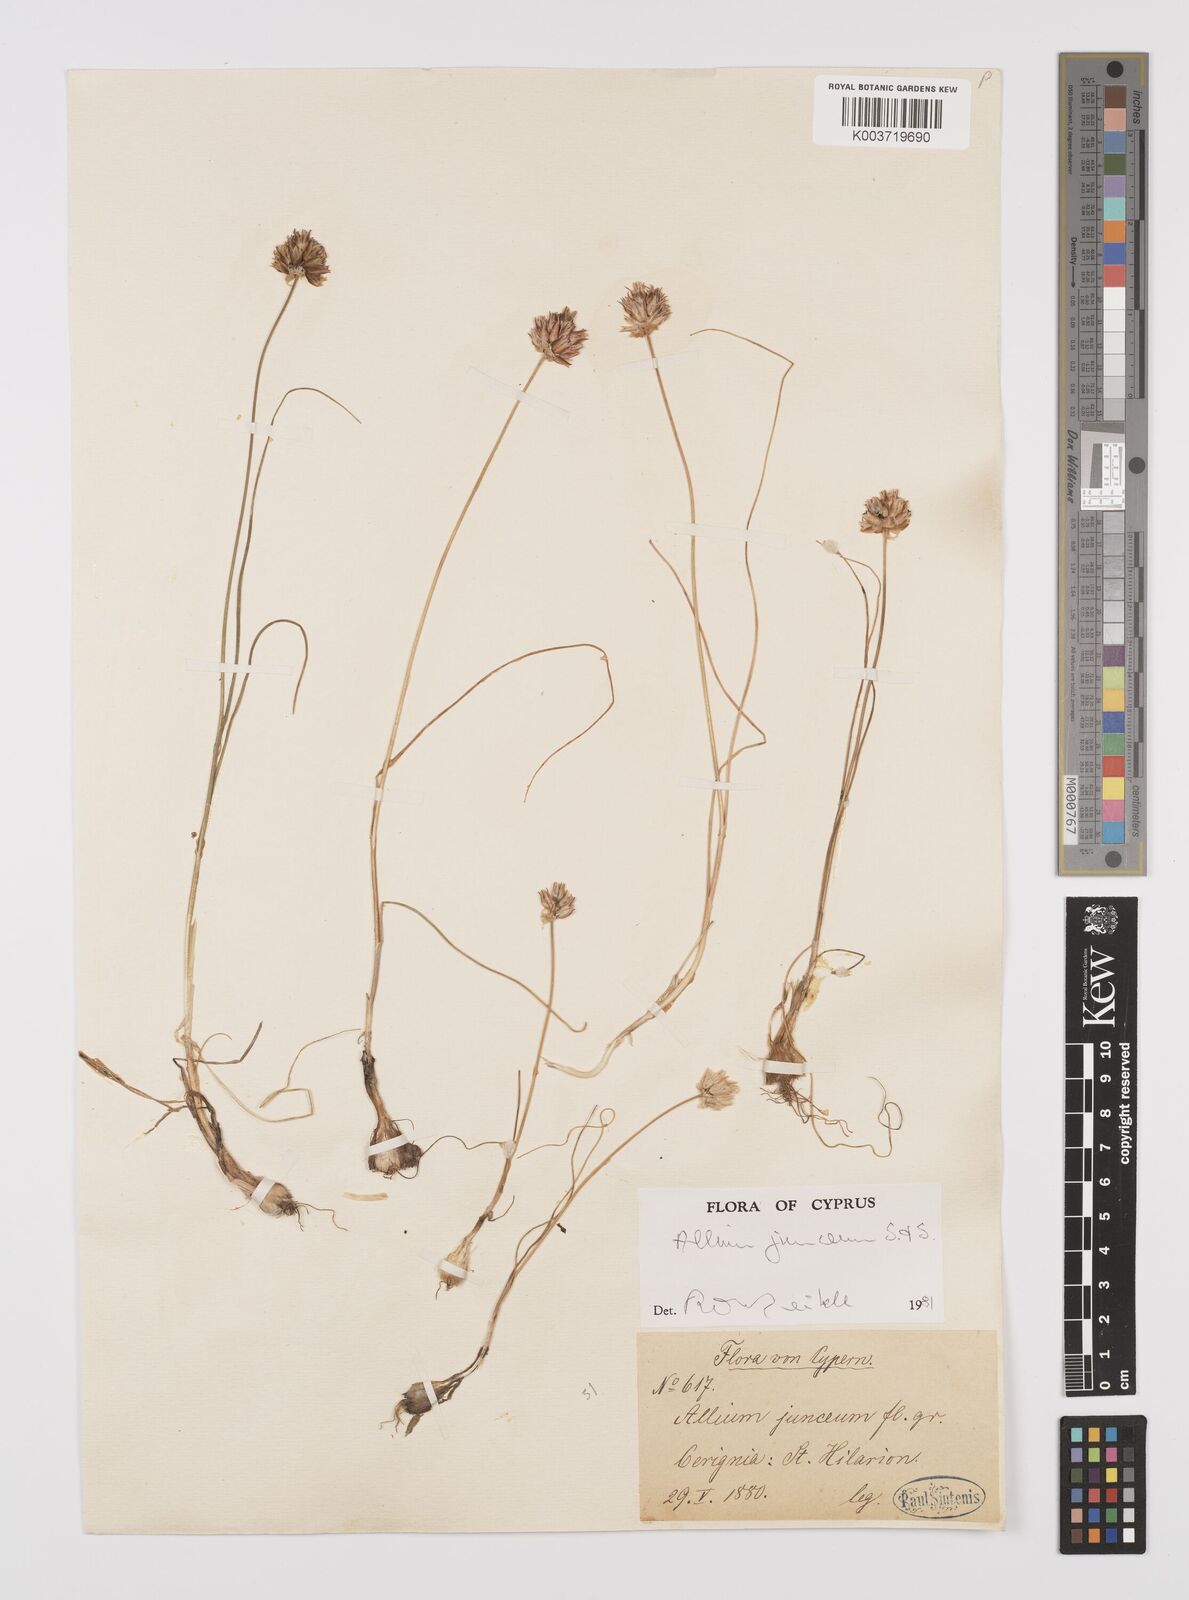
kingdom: Plantae
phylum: Tracheophyta
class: Liliopsida
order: Asparagales
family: Amaryllidaceae
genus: Allium
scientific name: Allium junceum
